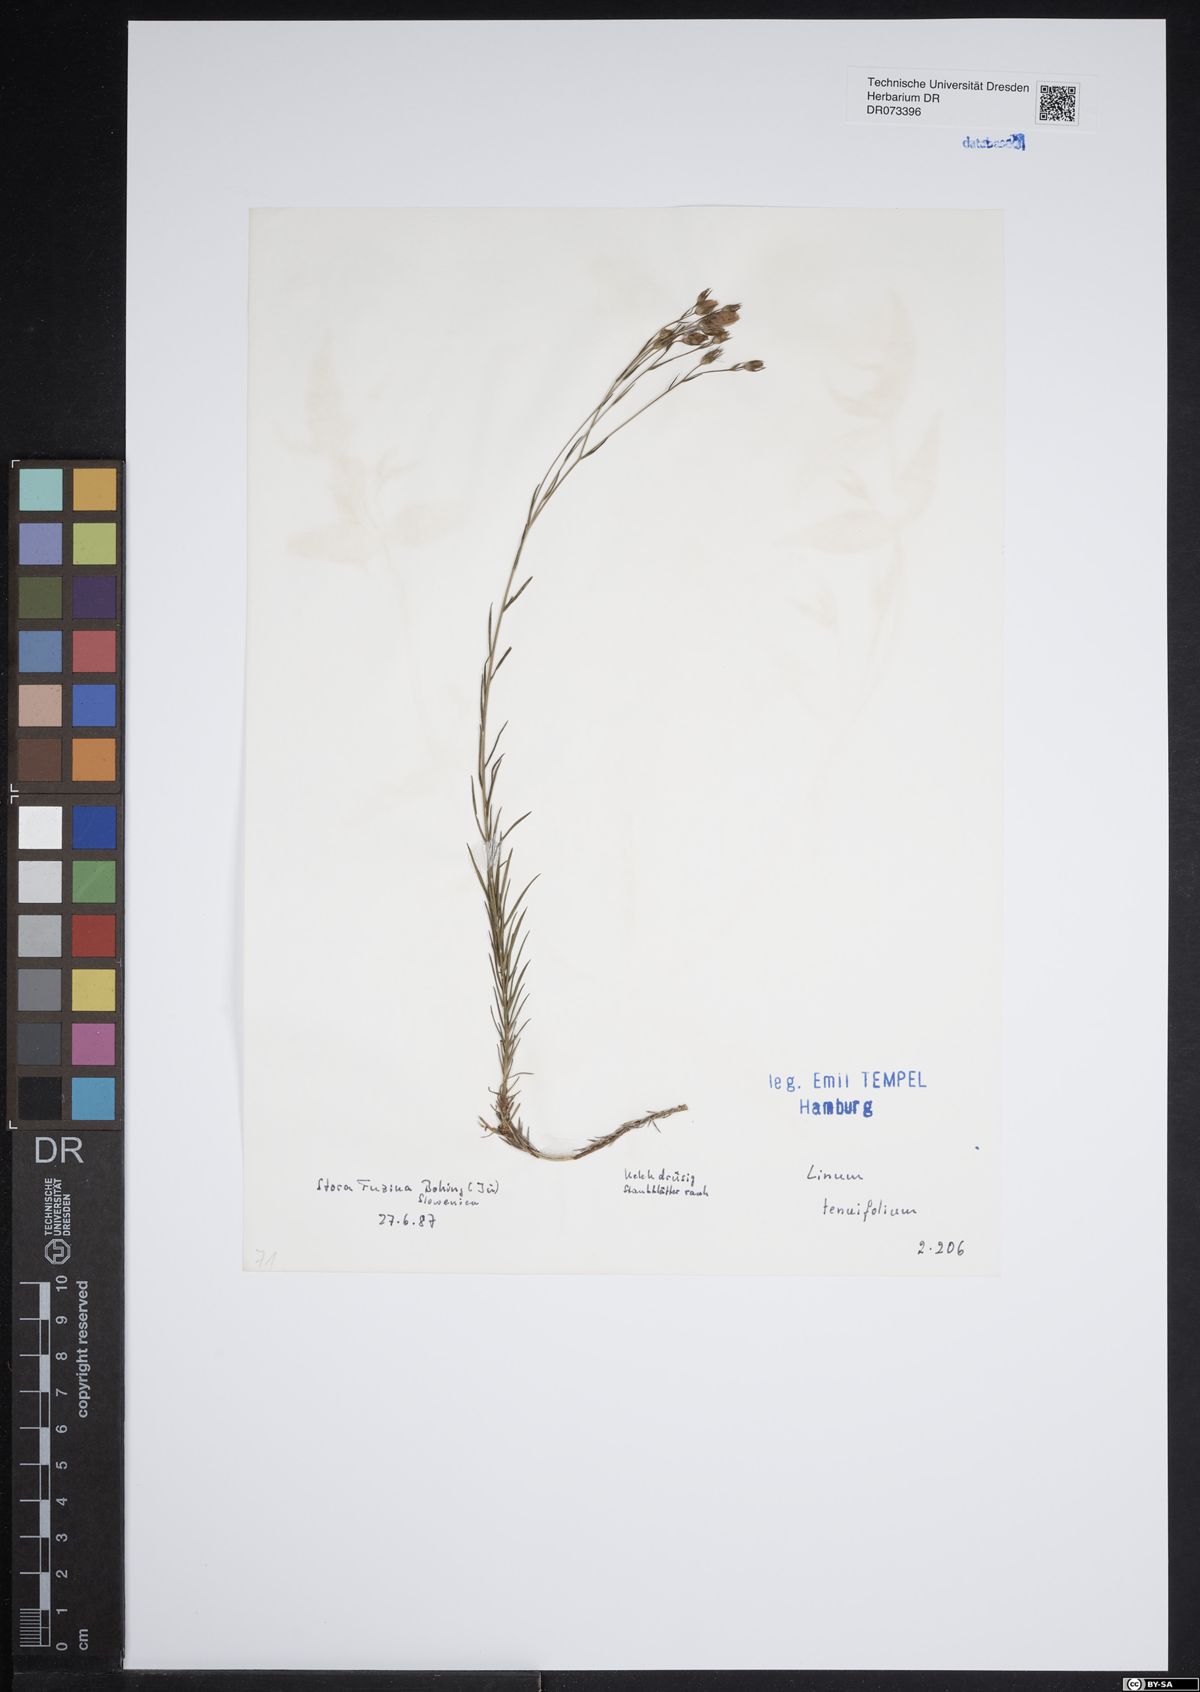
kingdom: Plantae
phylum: Tracheophyta
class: Magnoliopsida
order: Malpighiales
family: Linaceae
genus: Linum
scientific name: Linum tenuifolium
